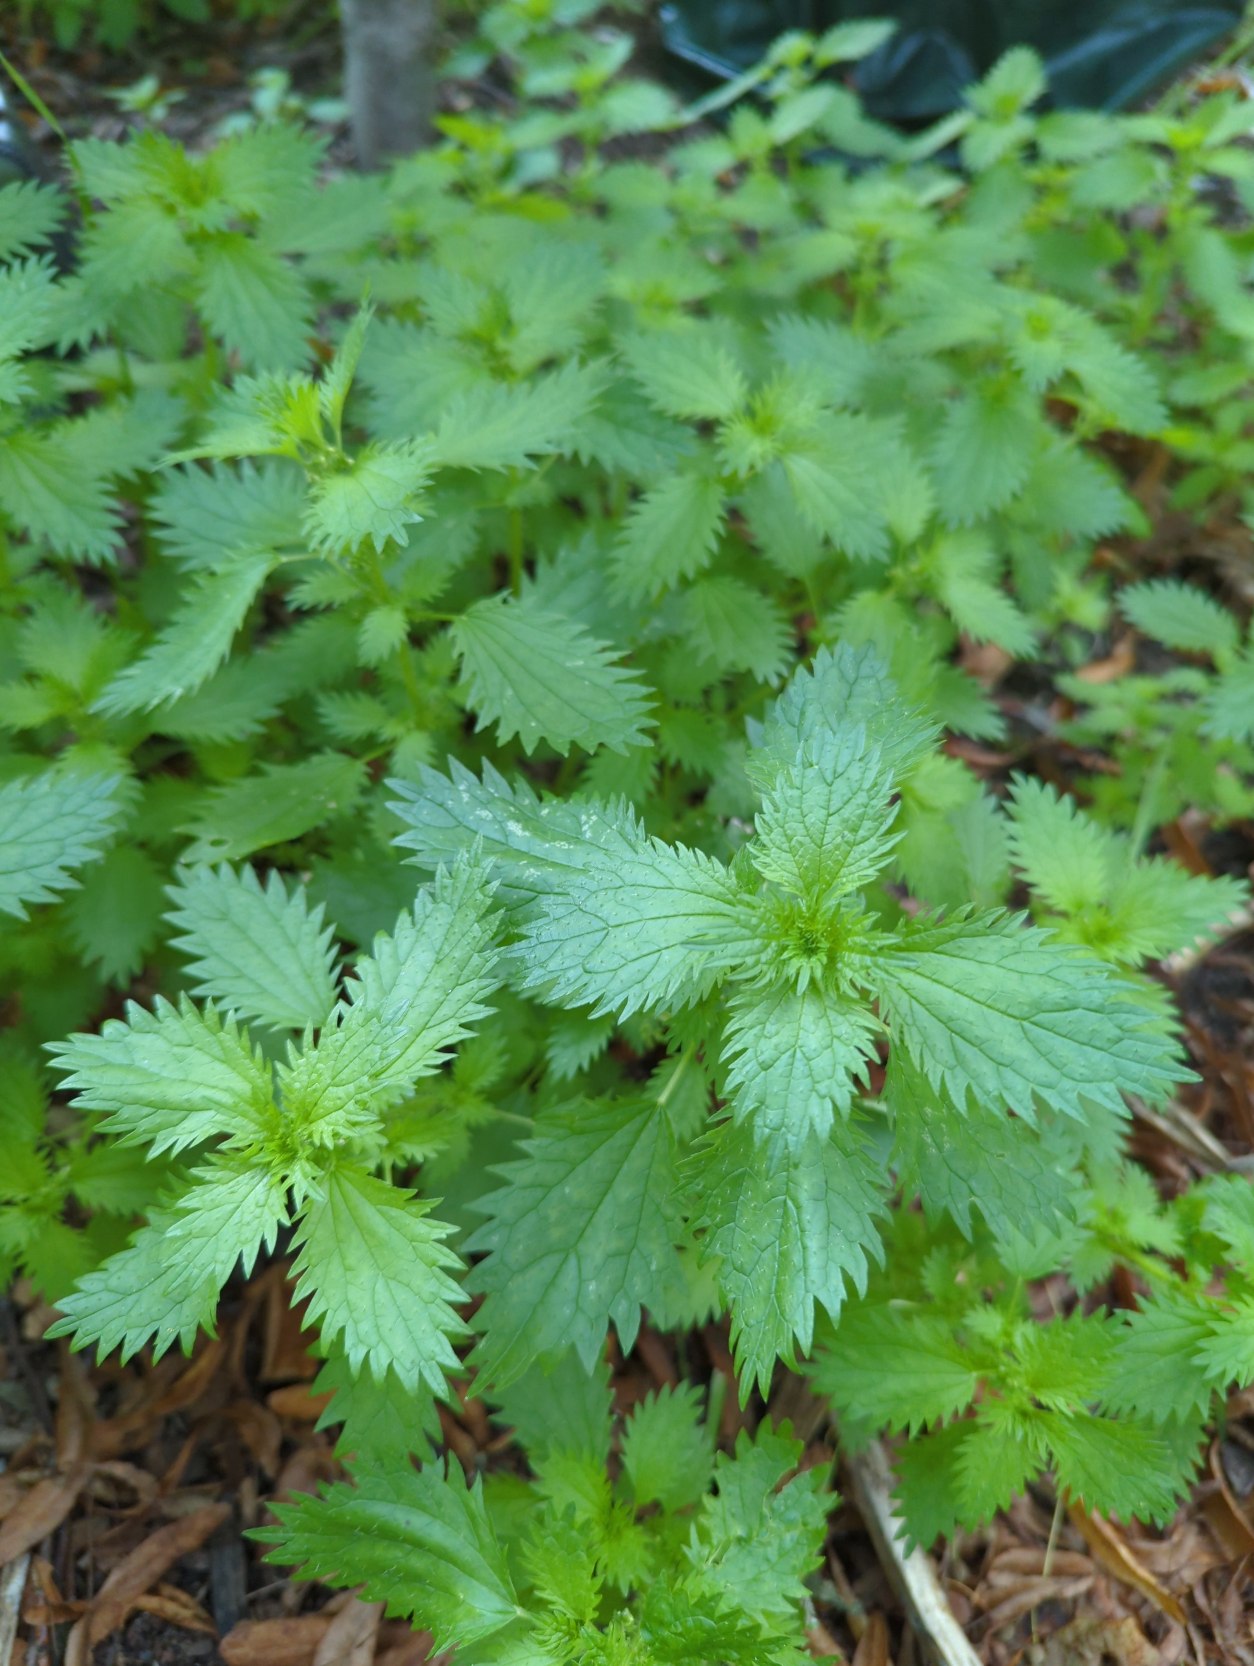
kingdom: Plantae
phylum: Tracheophyta
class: Magnoliopsida
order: Rosales
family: Urticaceae
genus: Urtica
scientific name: Urtica urens
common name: Liden nælde
